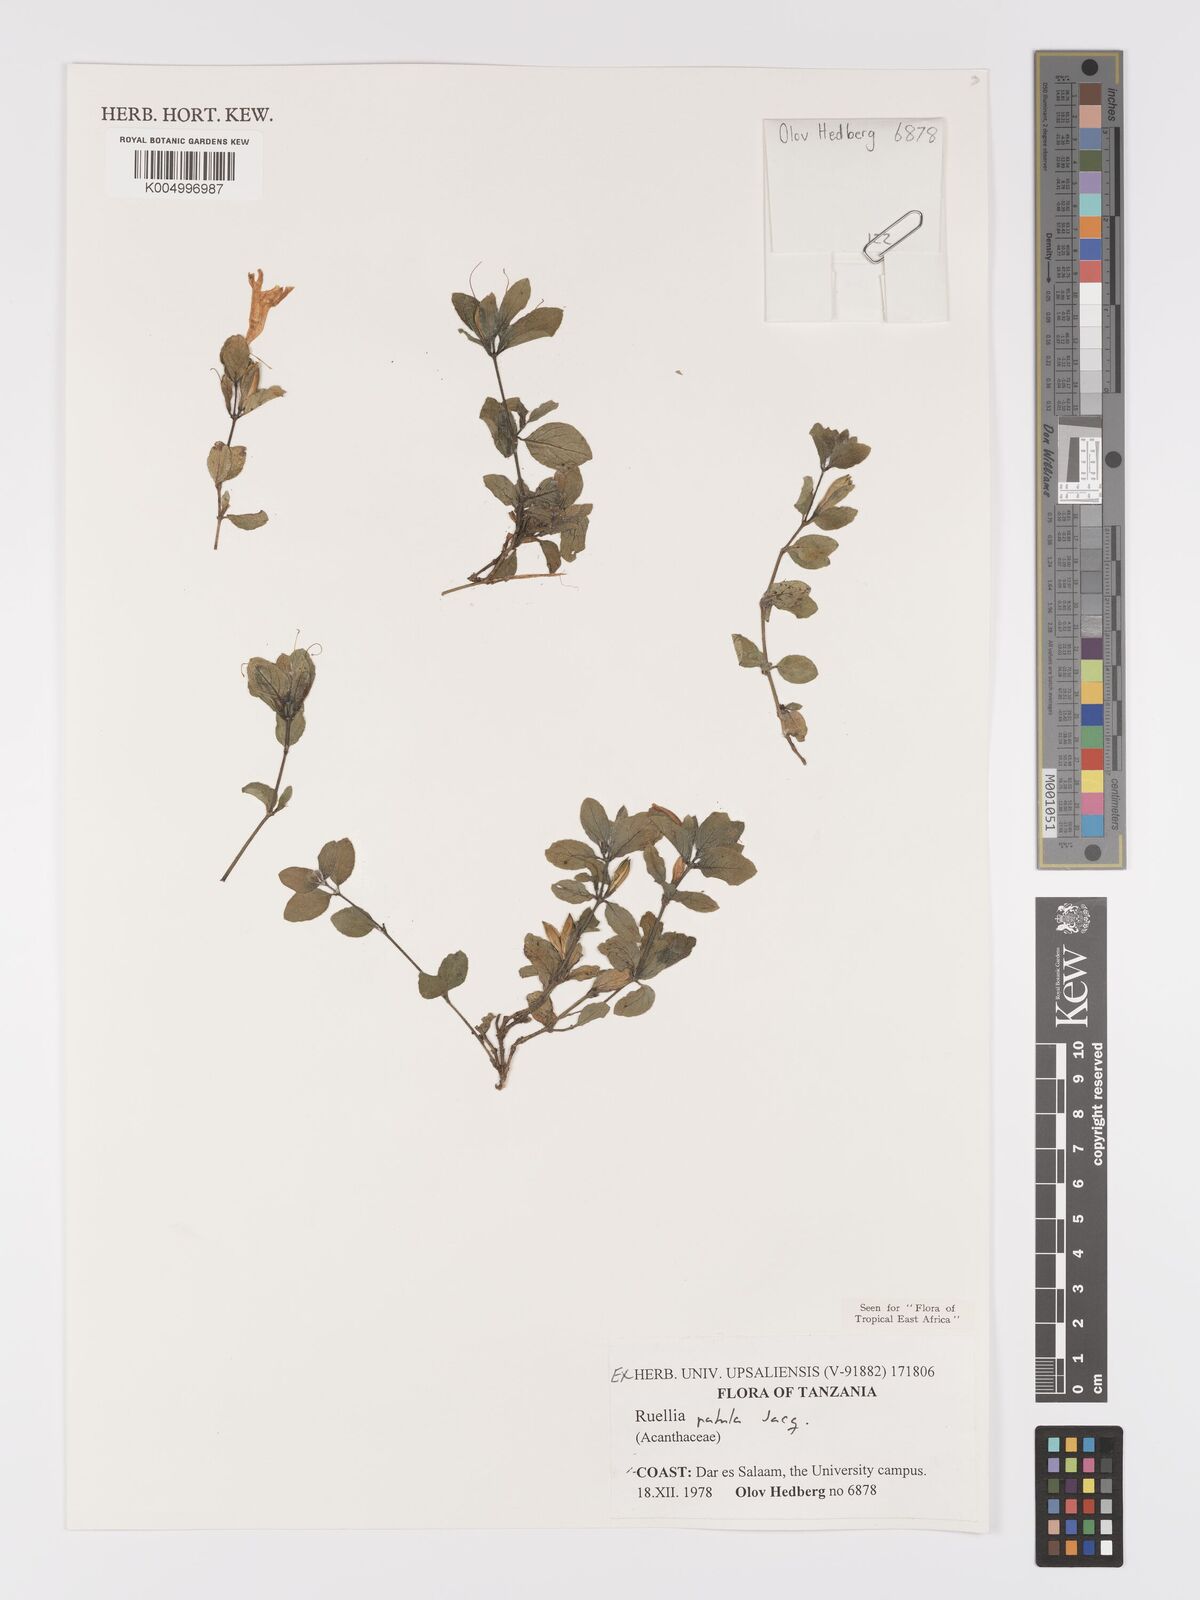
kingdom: Plantae
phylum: Tracheophyta
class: Magnoliopsida
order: Lamiales
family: Acanthaceae
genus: Ruellia
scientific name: Ruellia patula
